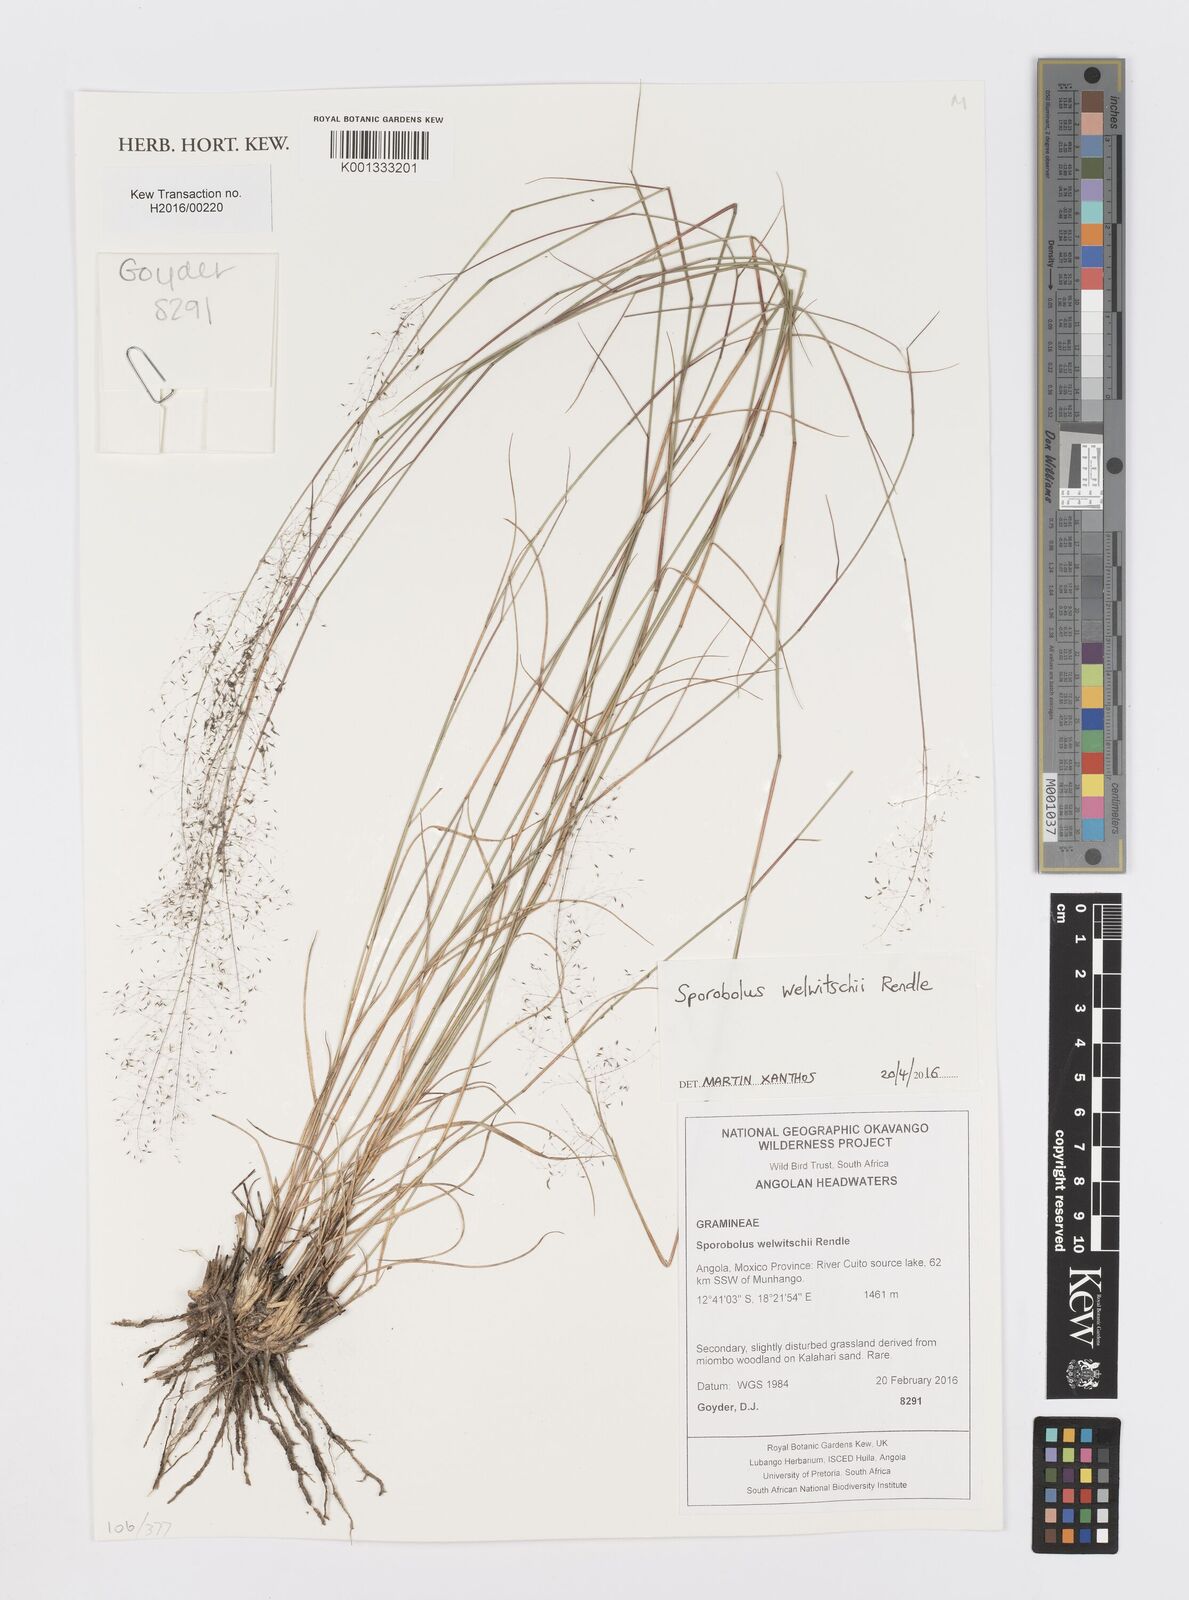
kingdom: Plantae
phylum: Tracheophyta
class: Liliopsida
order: Poales
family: Poaceae
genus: Sporobolus
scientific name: Sporobolus welwitschii
